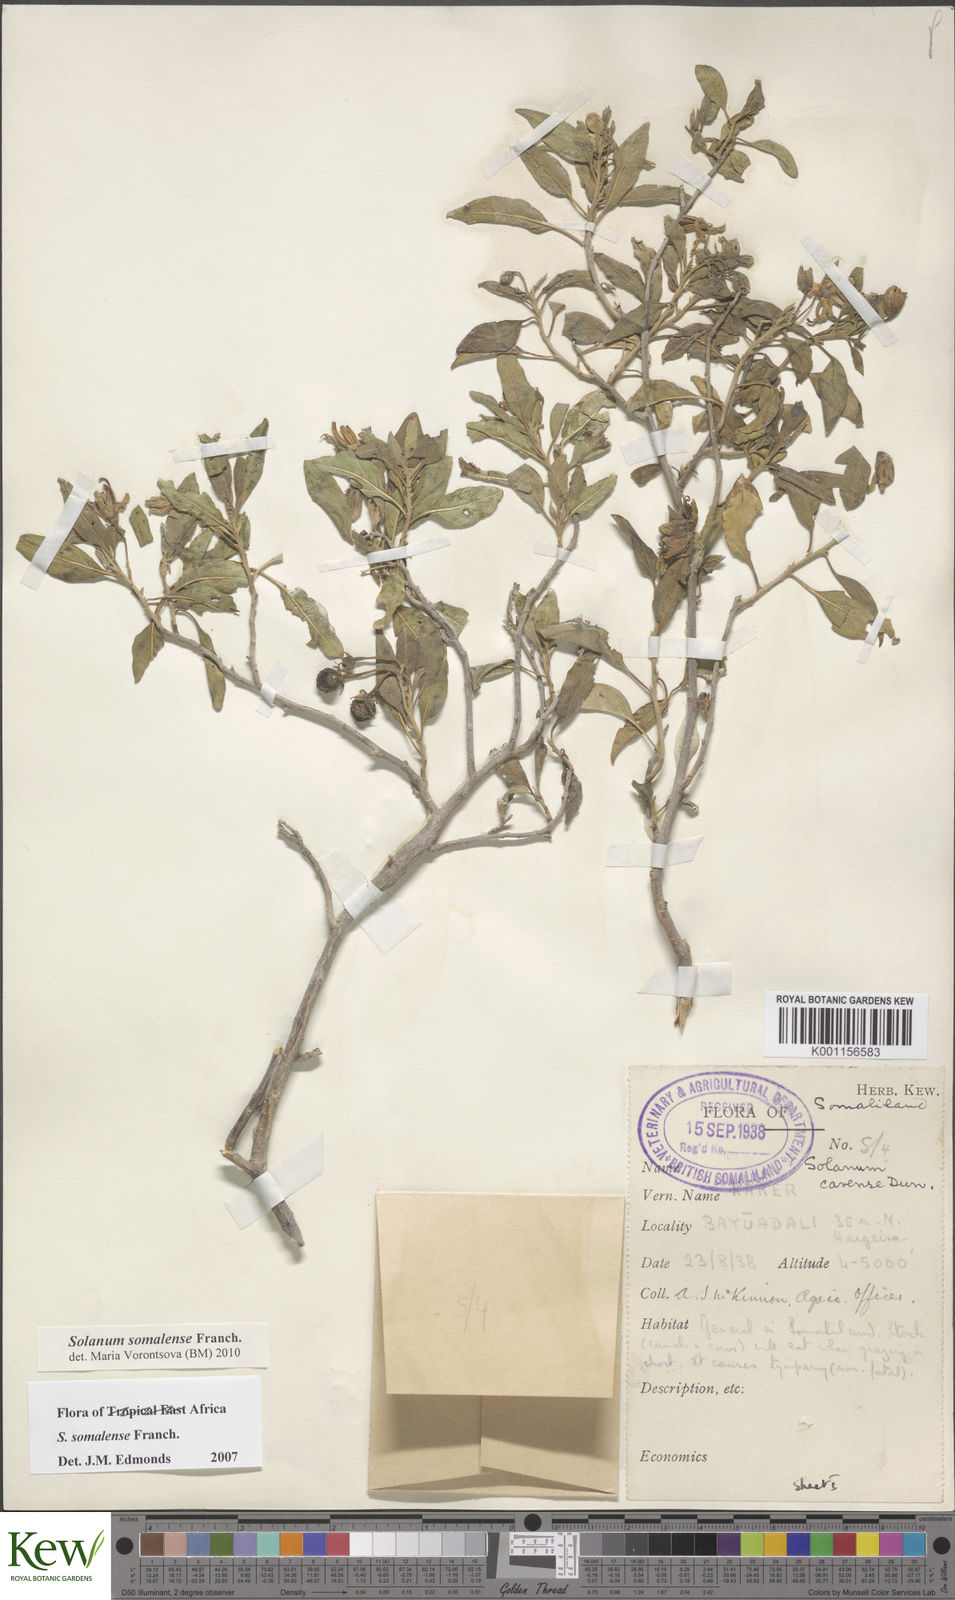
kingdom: Plantae
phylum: Tracheophyta
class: Magnoliopsida
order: Solanales
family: Solanaceae
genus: Solanum
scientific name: Solanum somalense
